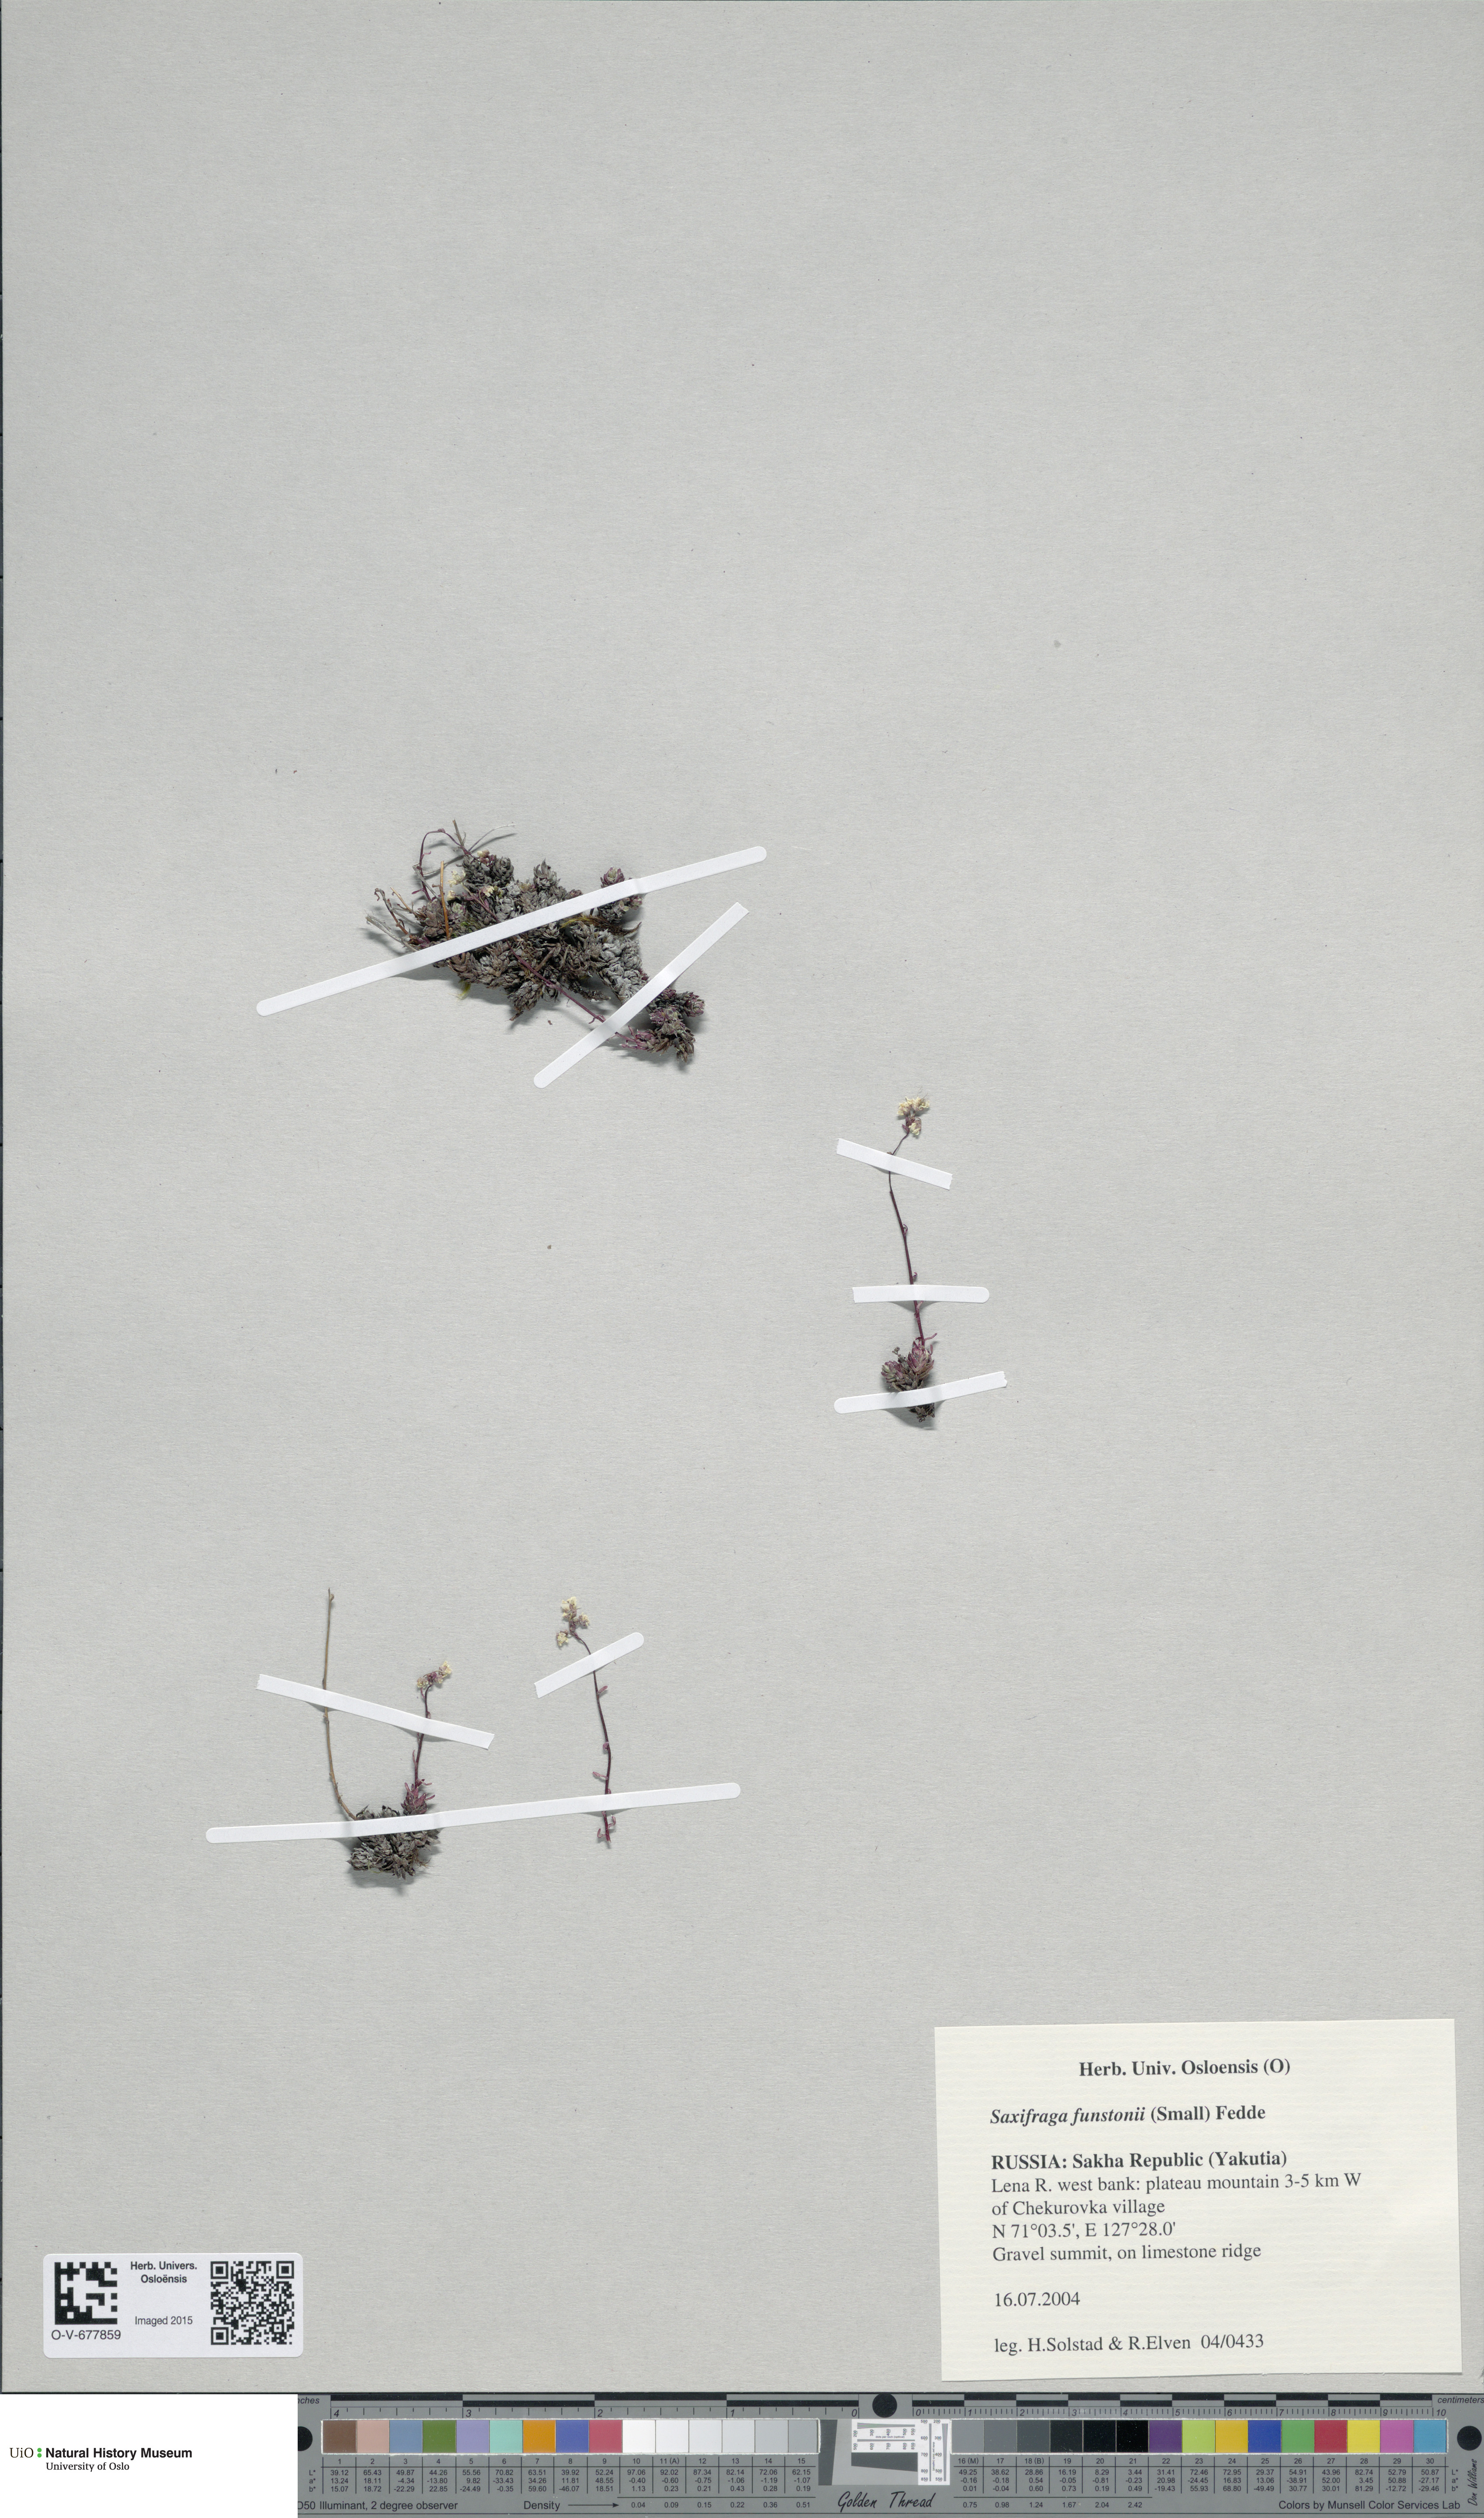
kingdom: Plantae
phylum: Tracheophyta
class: Magnoliopsida
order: Saxifragales
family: Saxifragaceae
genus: Saxifraga
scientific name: Saxifraga bronchialis
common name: Matted saxifrage
